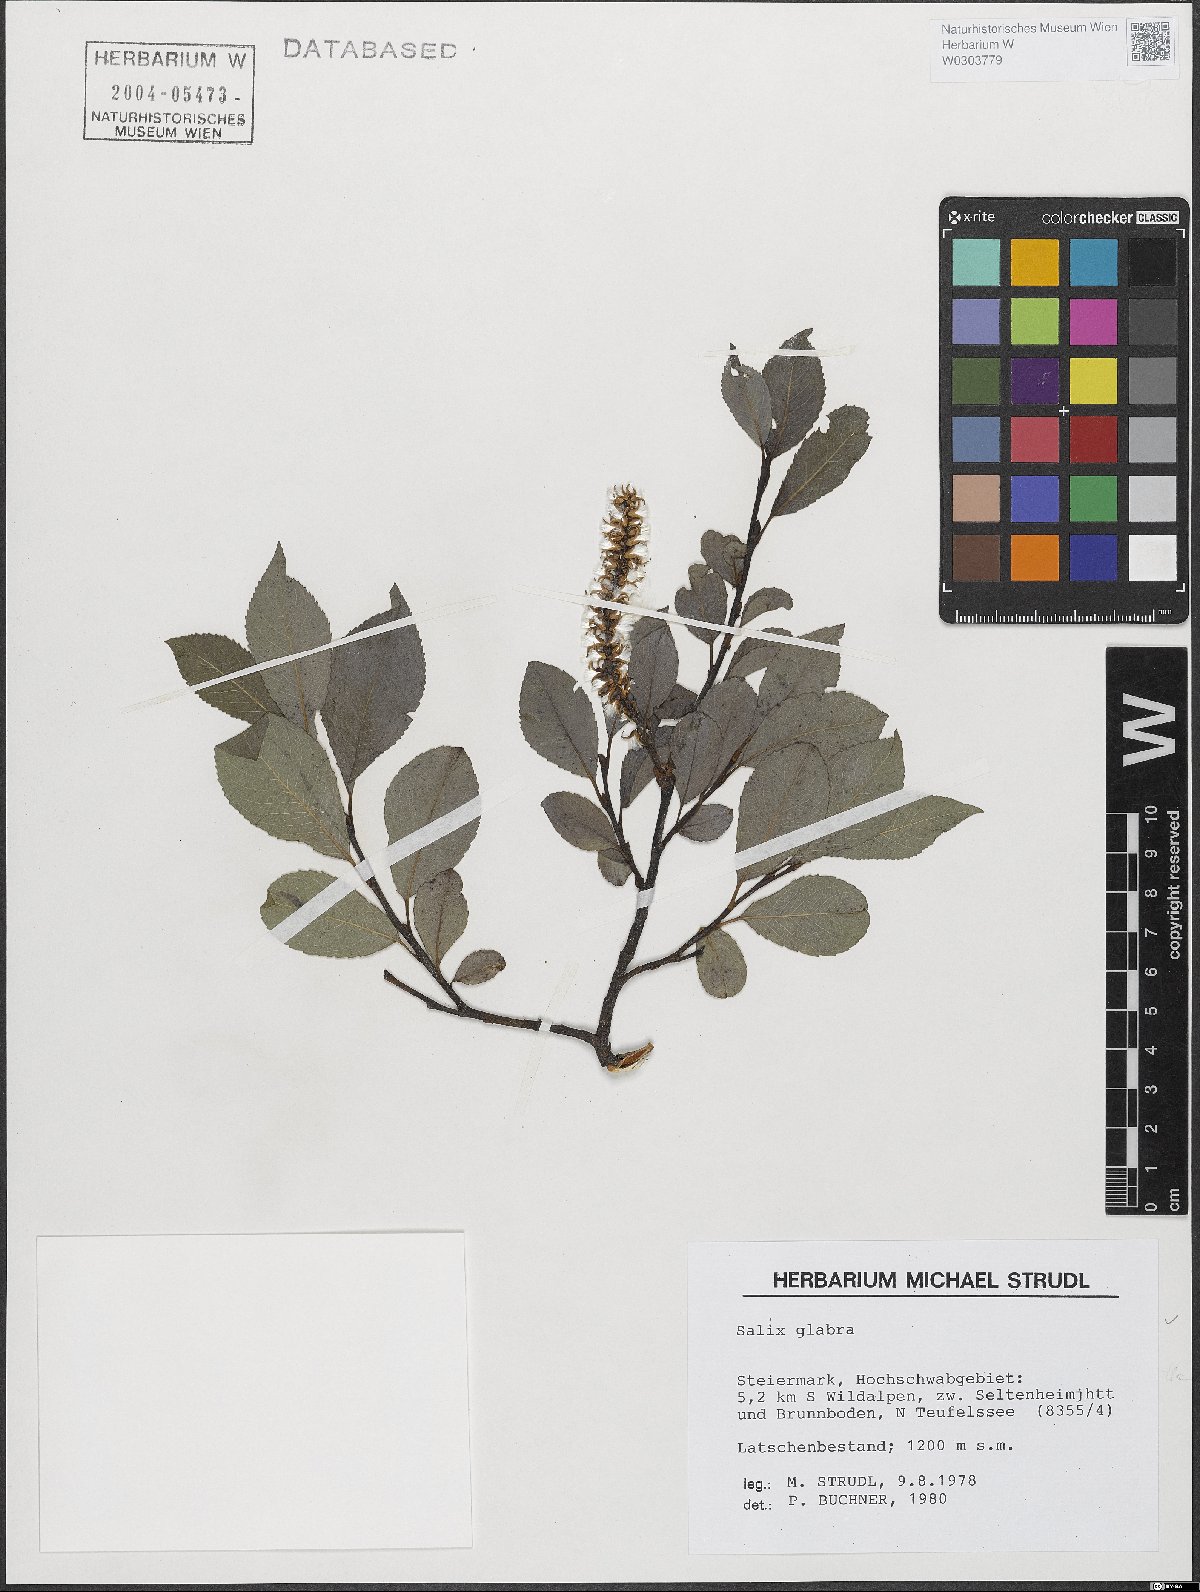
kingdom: Plantae
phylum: Tracheophyta
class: Magnoliopsida
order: Malpighiales
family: Salicaceae
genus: Salix
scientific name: Salix glabra
